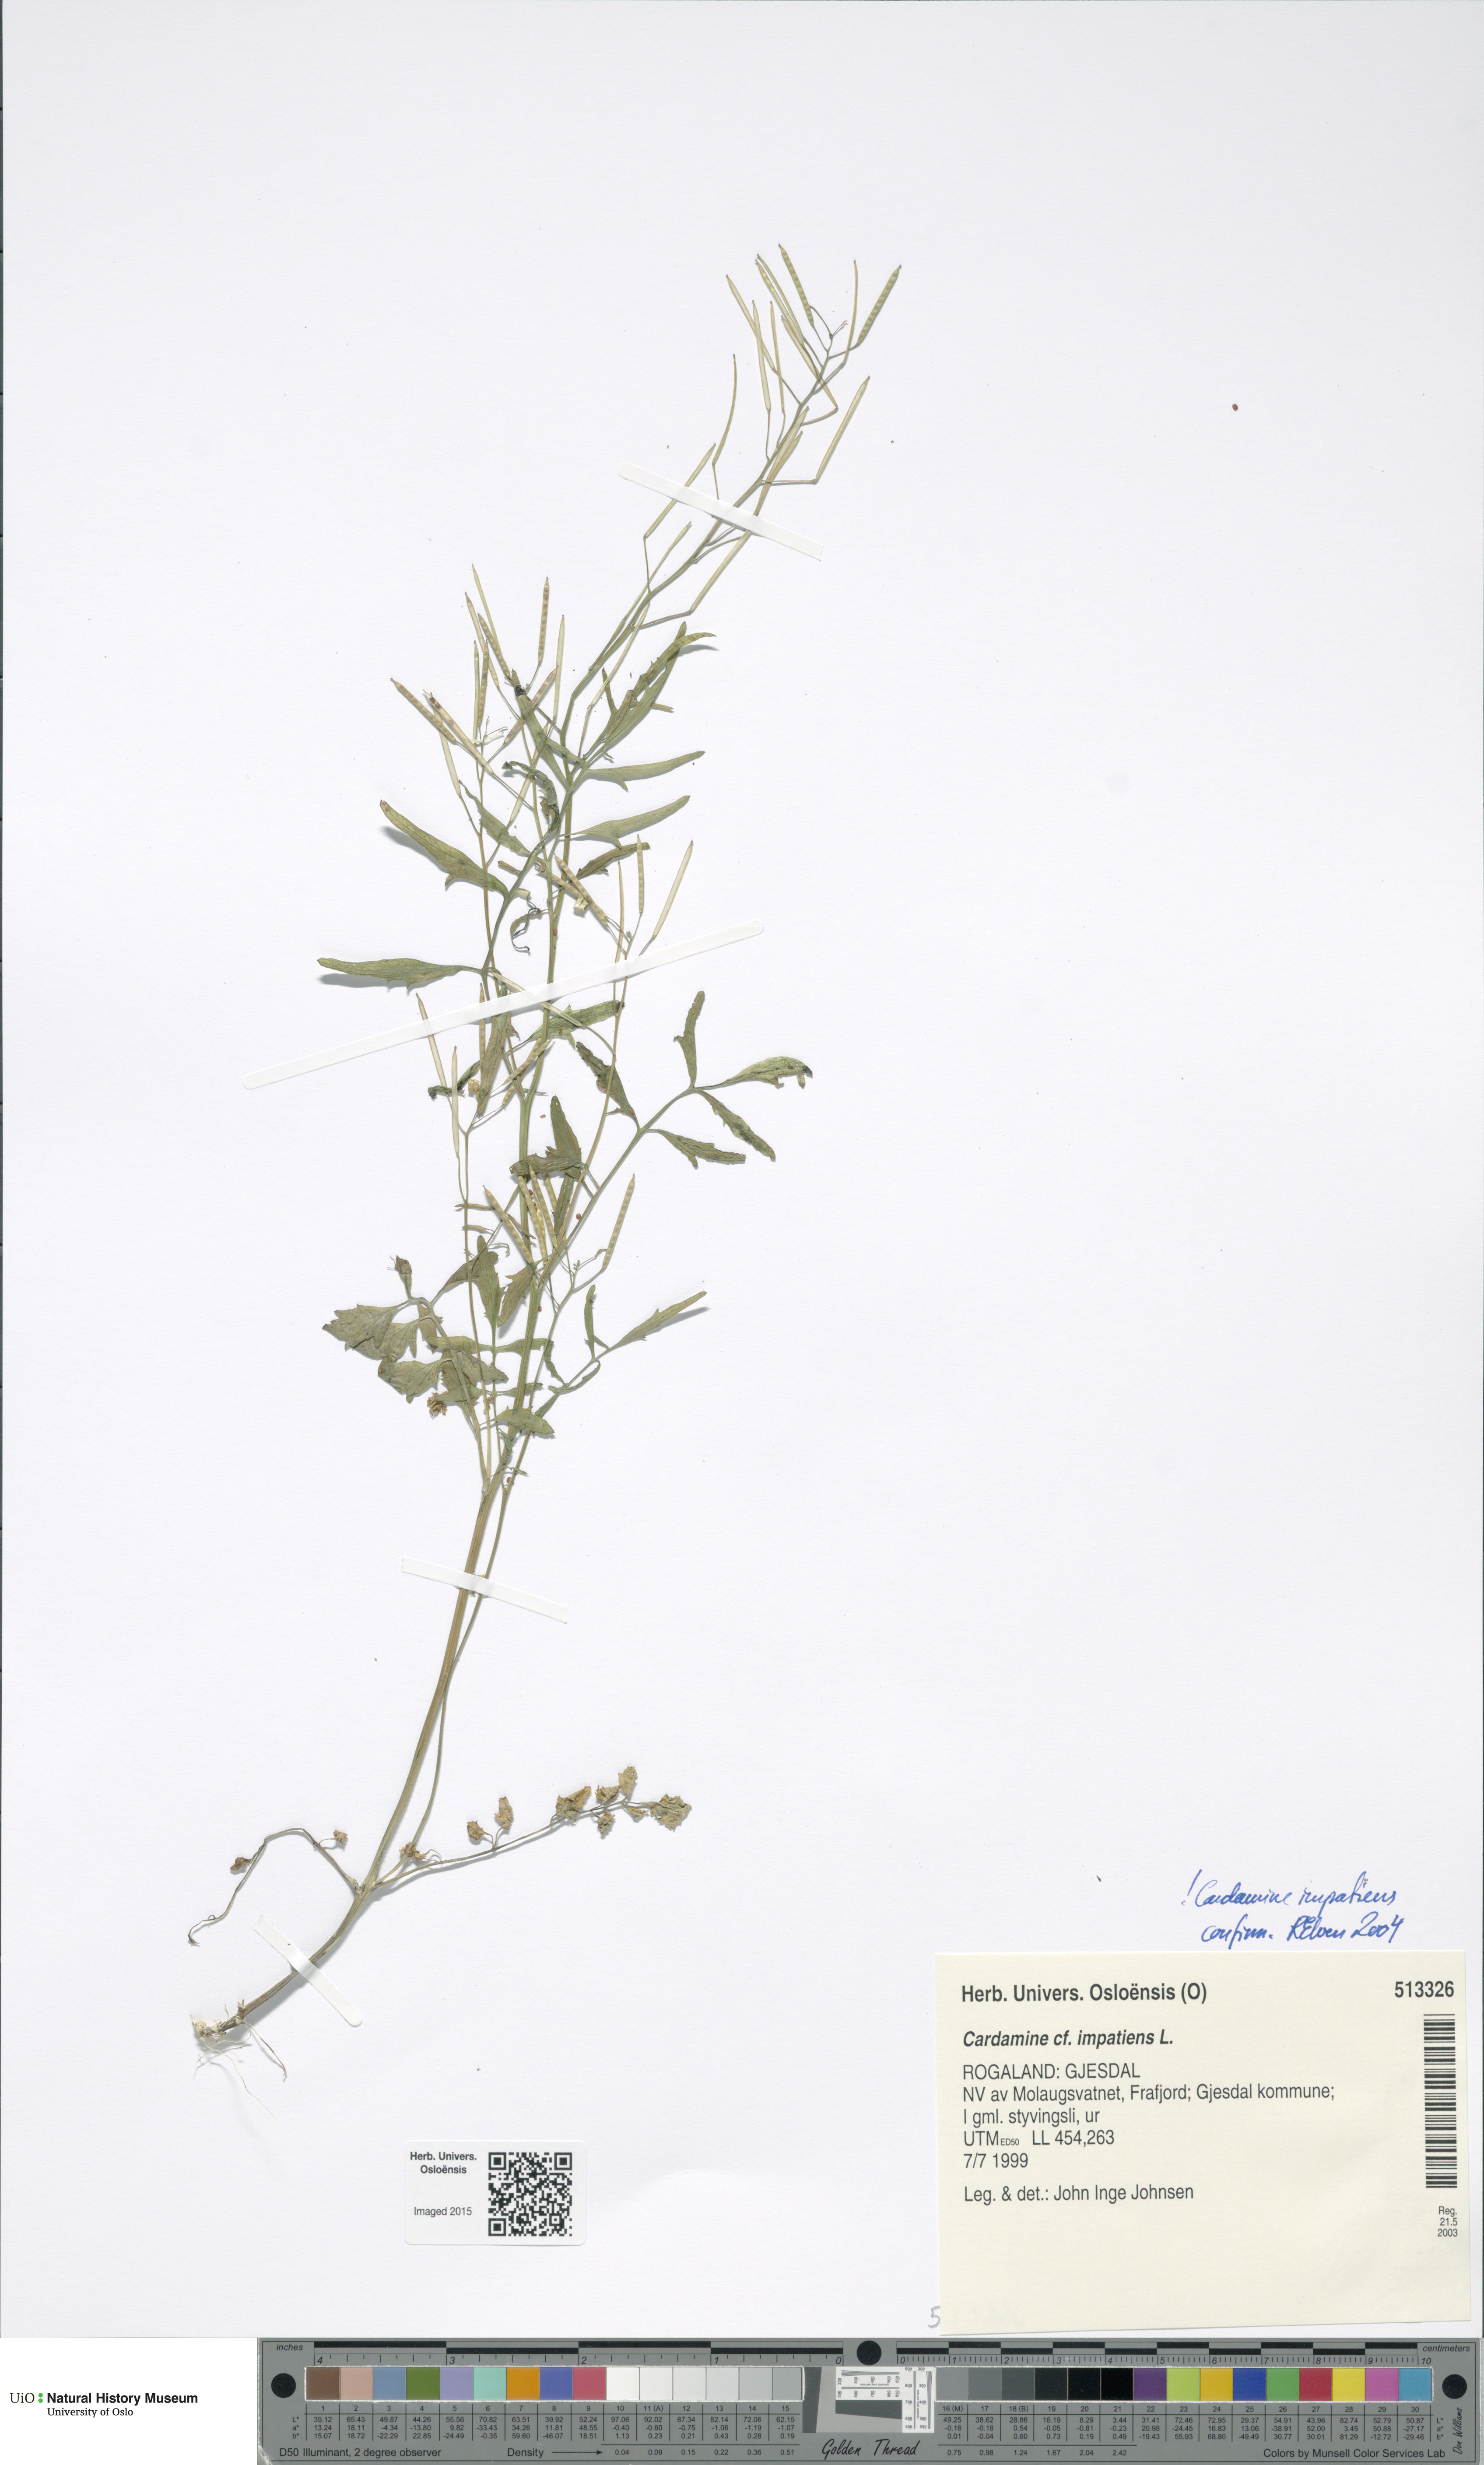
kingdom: Plantae
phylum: Tracheophyta
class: Magnoliopsida
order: Brassicales
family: Brassicaceae
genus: Cardamine
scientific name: Cardamine impatiens
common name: Narrow-leaved bitter-cress
